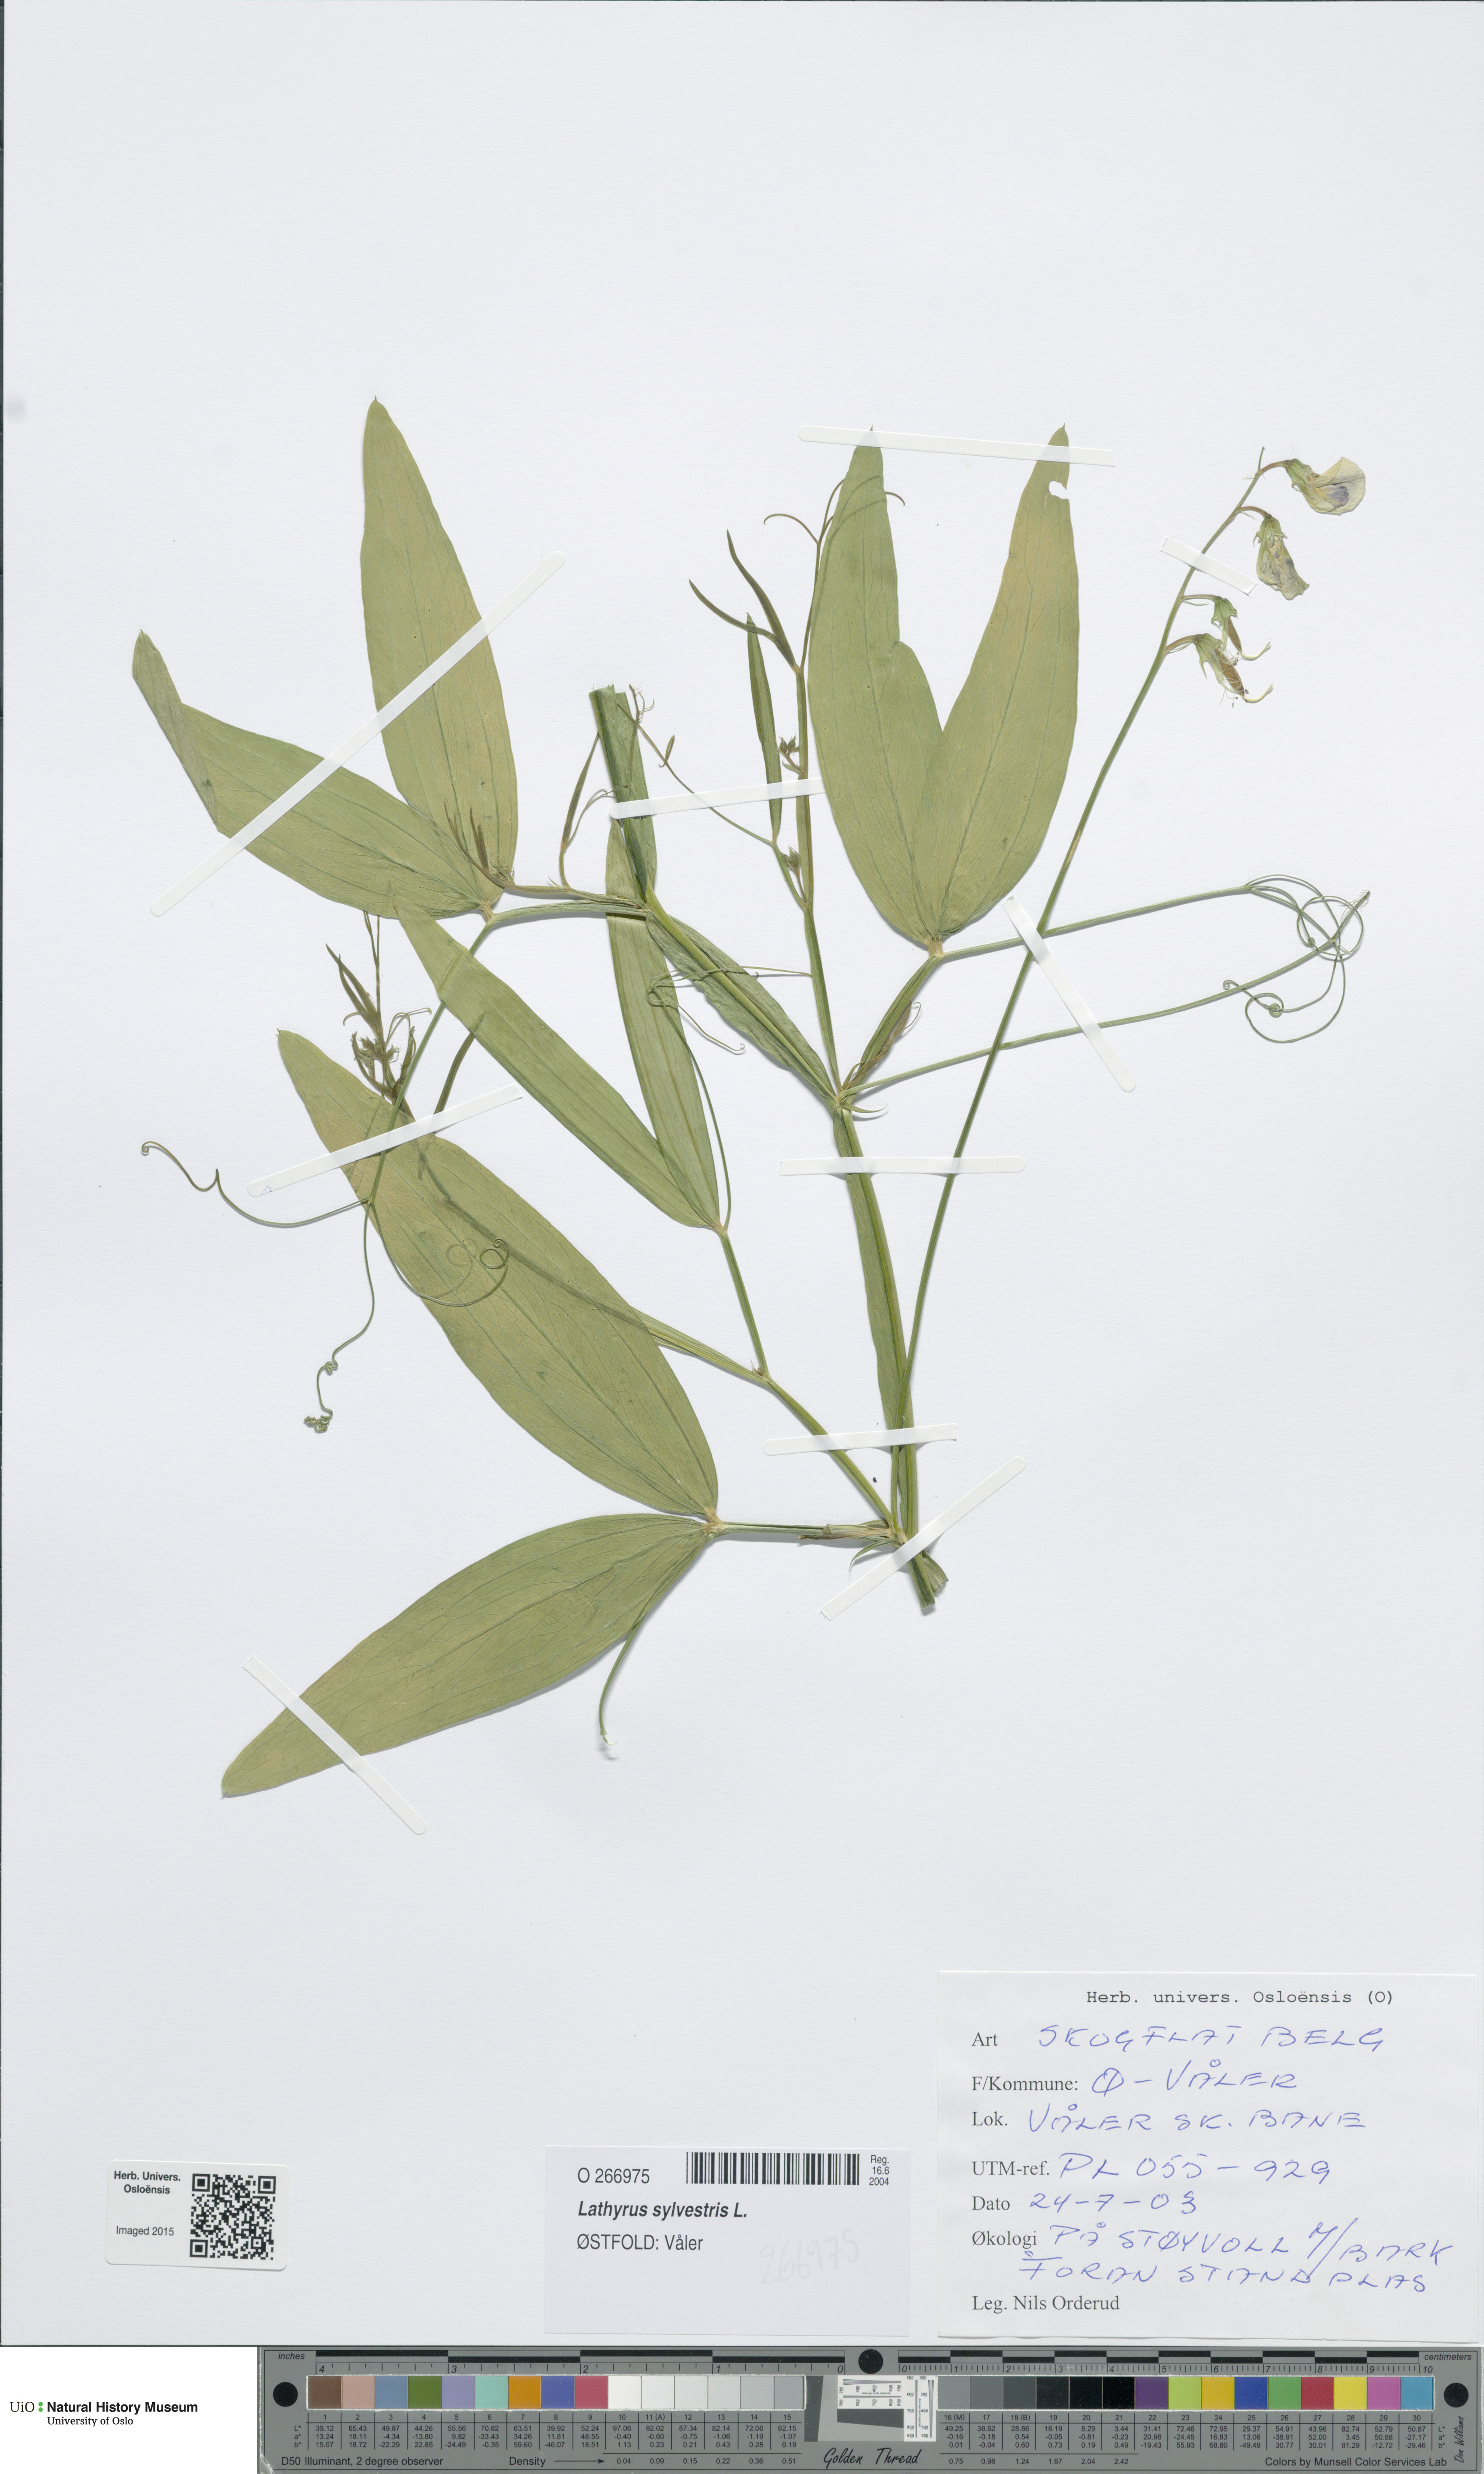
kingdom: Plantae
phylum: Tracheophyta
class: Magnoliopsida
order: Fabales
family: Fabaceae
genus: Lathyrus
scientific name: Lathyrus sylvestris
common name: Flat pea
